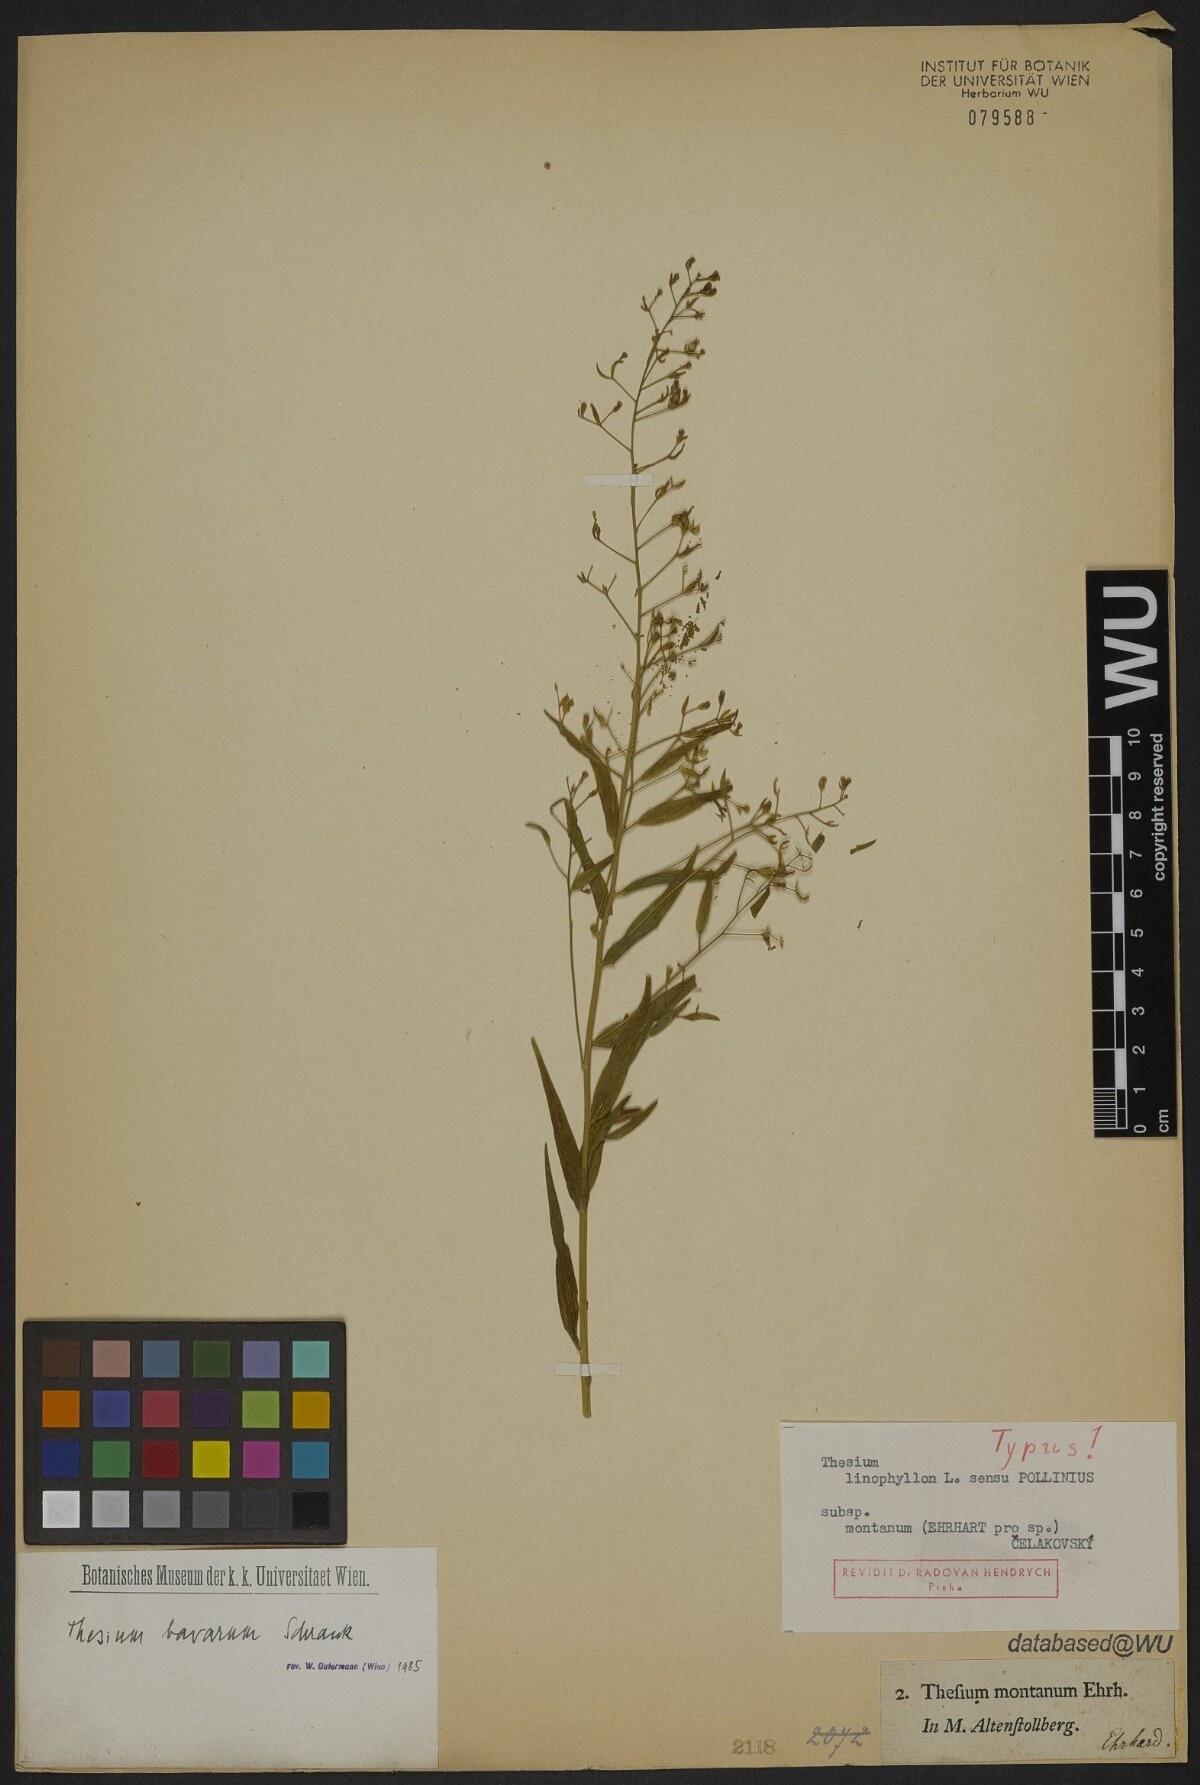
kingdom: Plantae
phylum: Tracheophyta
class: Magnoliopsida
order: Santalales
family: Thesiaceae
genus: Thesium
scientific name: Thesium bavarum
